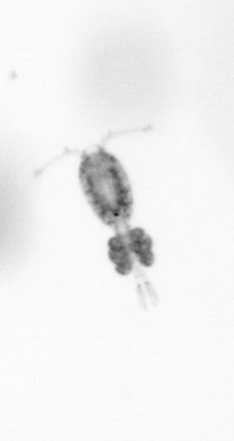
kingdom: Animalia
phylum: Arthropoda
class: Copepoda
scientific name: Copepoda
